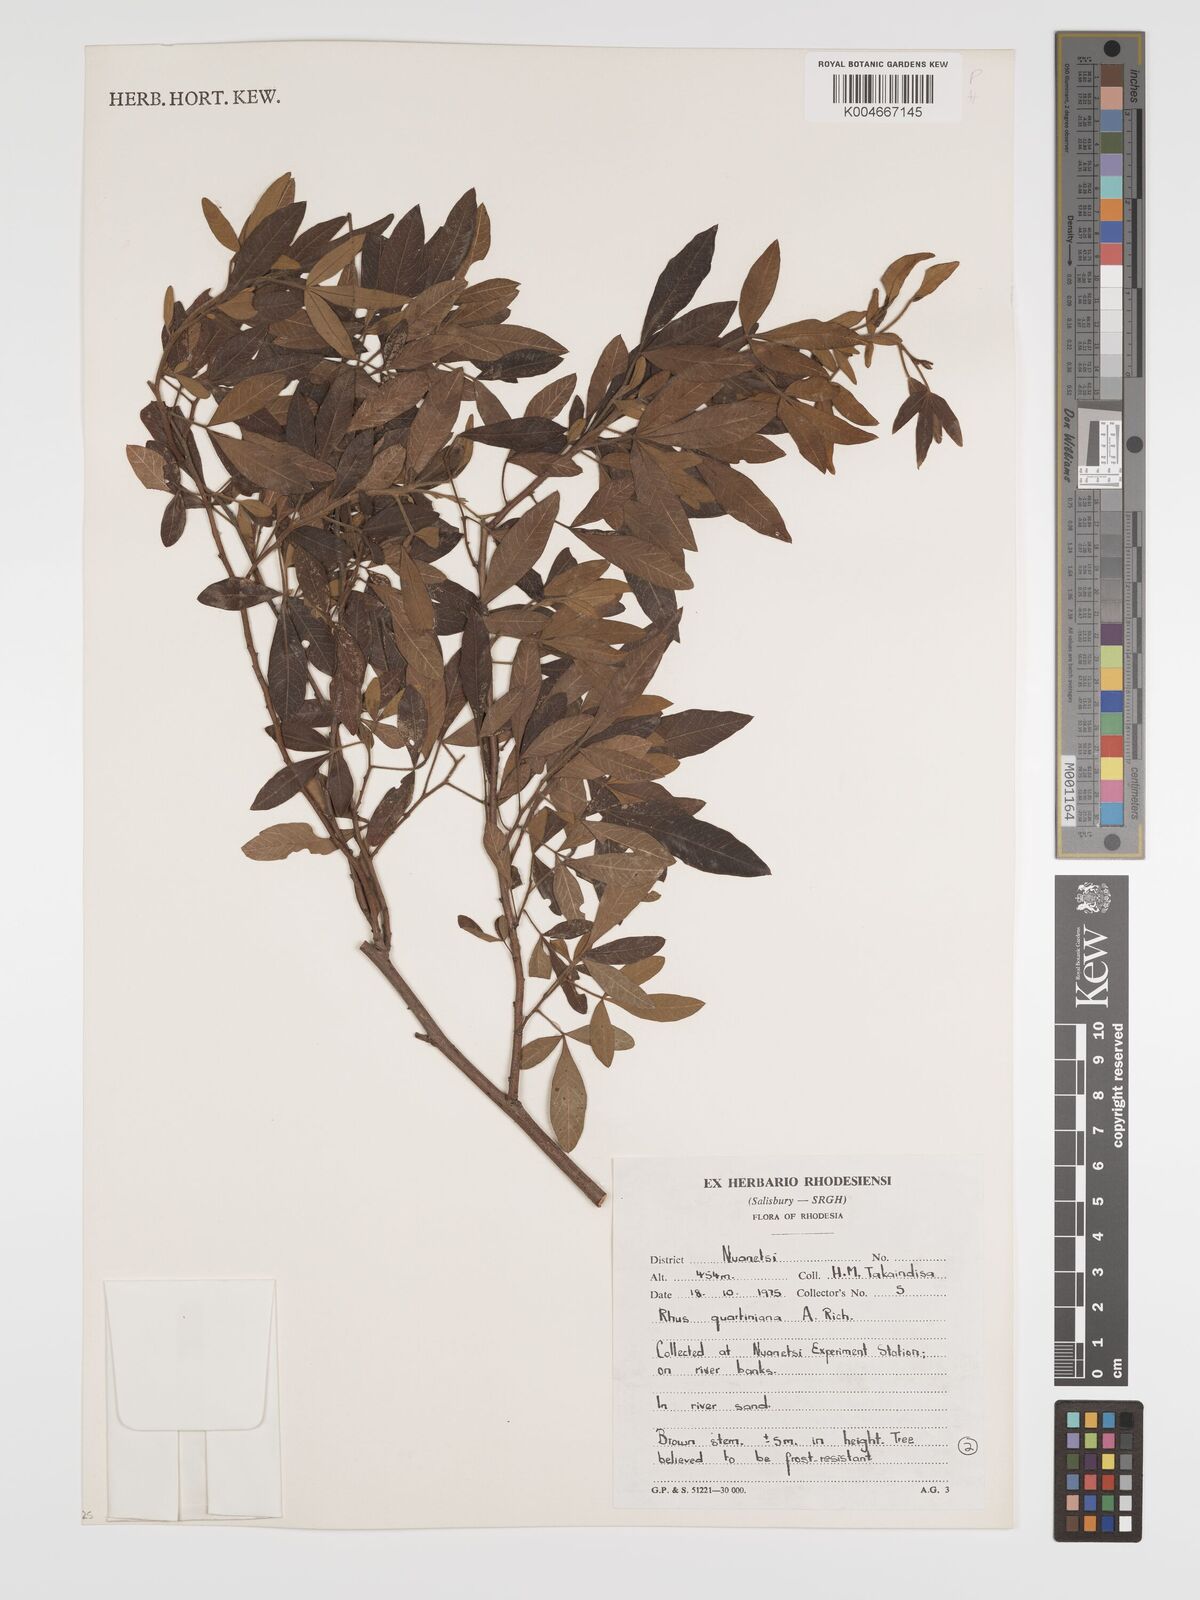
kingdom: Plantae
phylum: Tracheophyta
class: Magnoliopsida
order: Sapindales
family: Anacardiaceae
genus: Searsia
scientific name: Searsia quartiniana
